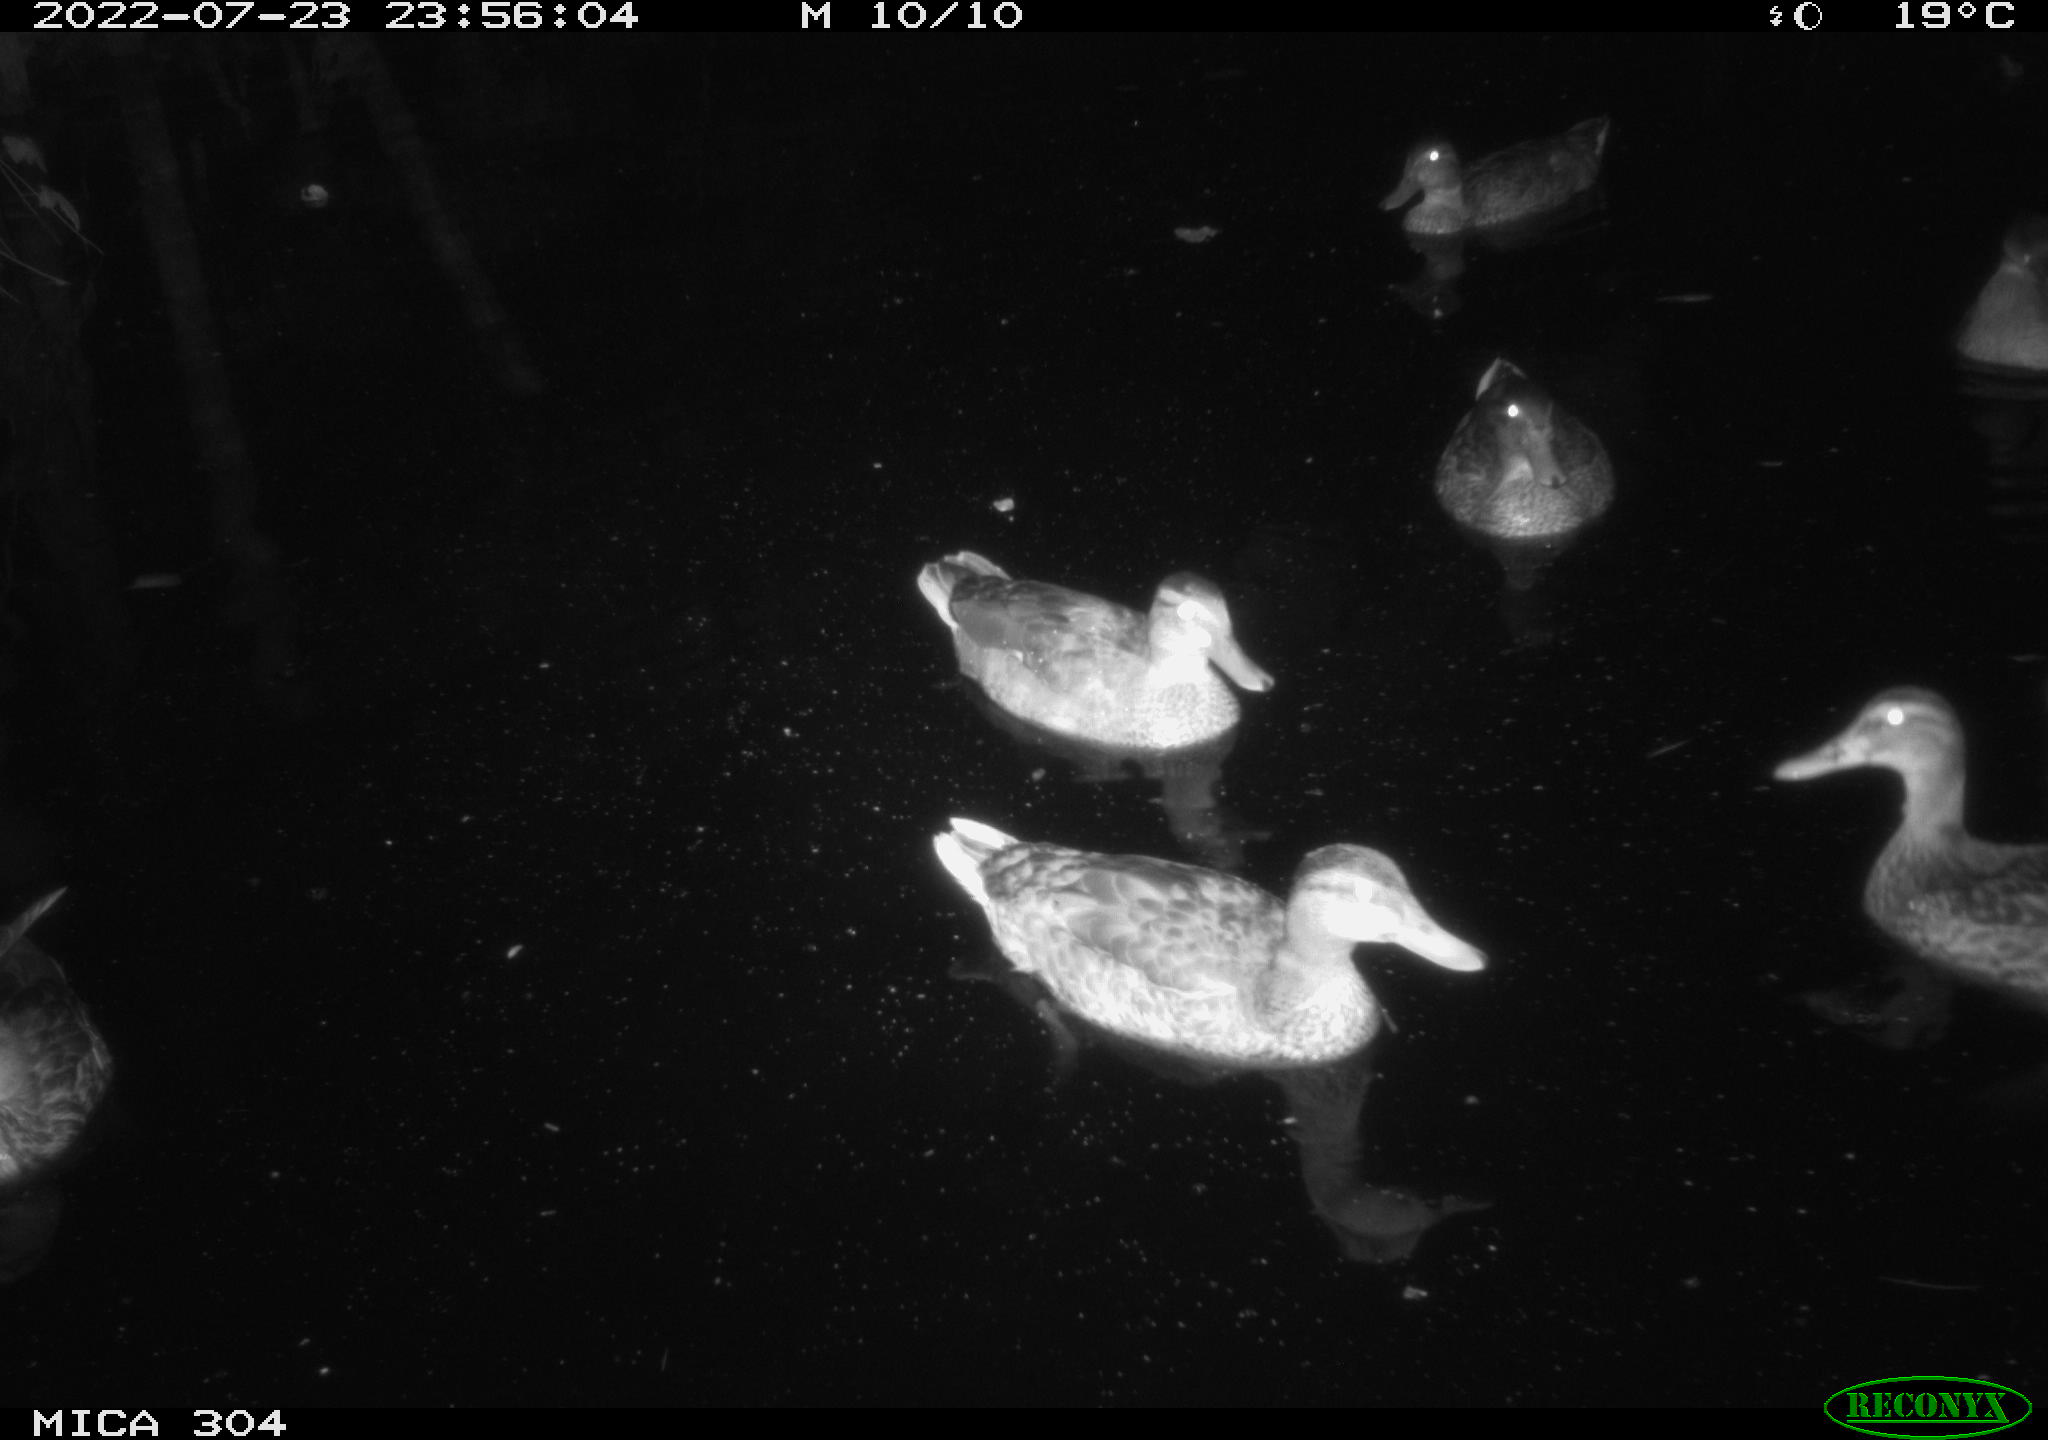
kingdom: Animalia
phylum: Chordata
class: Aves
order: Anseriformes
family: Anatidae
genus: Mareca
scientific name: Mareca strepera
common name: Gadwall
